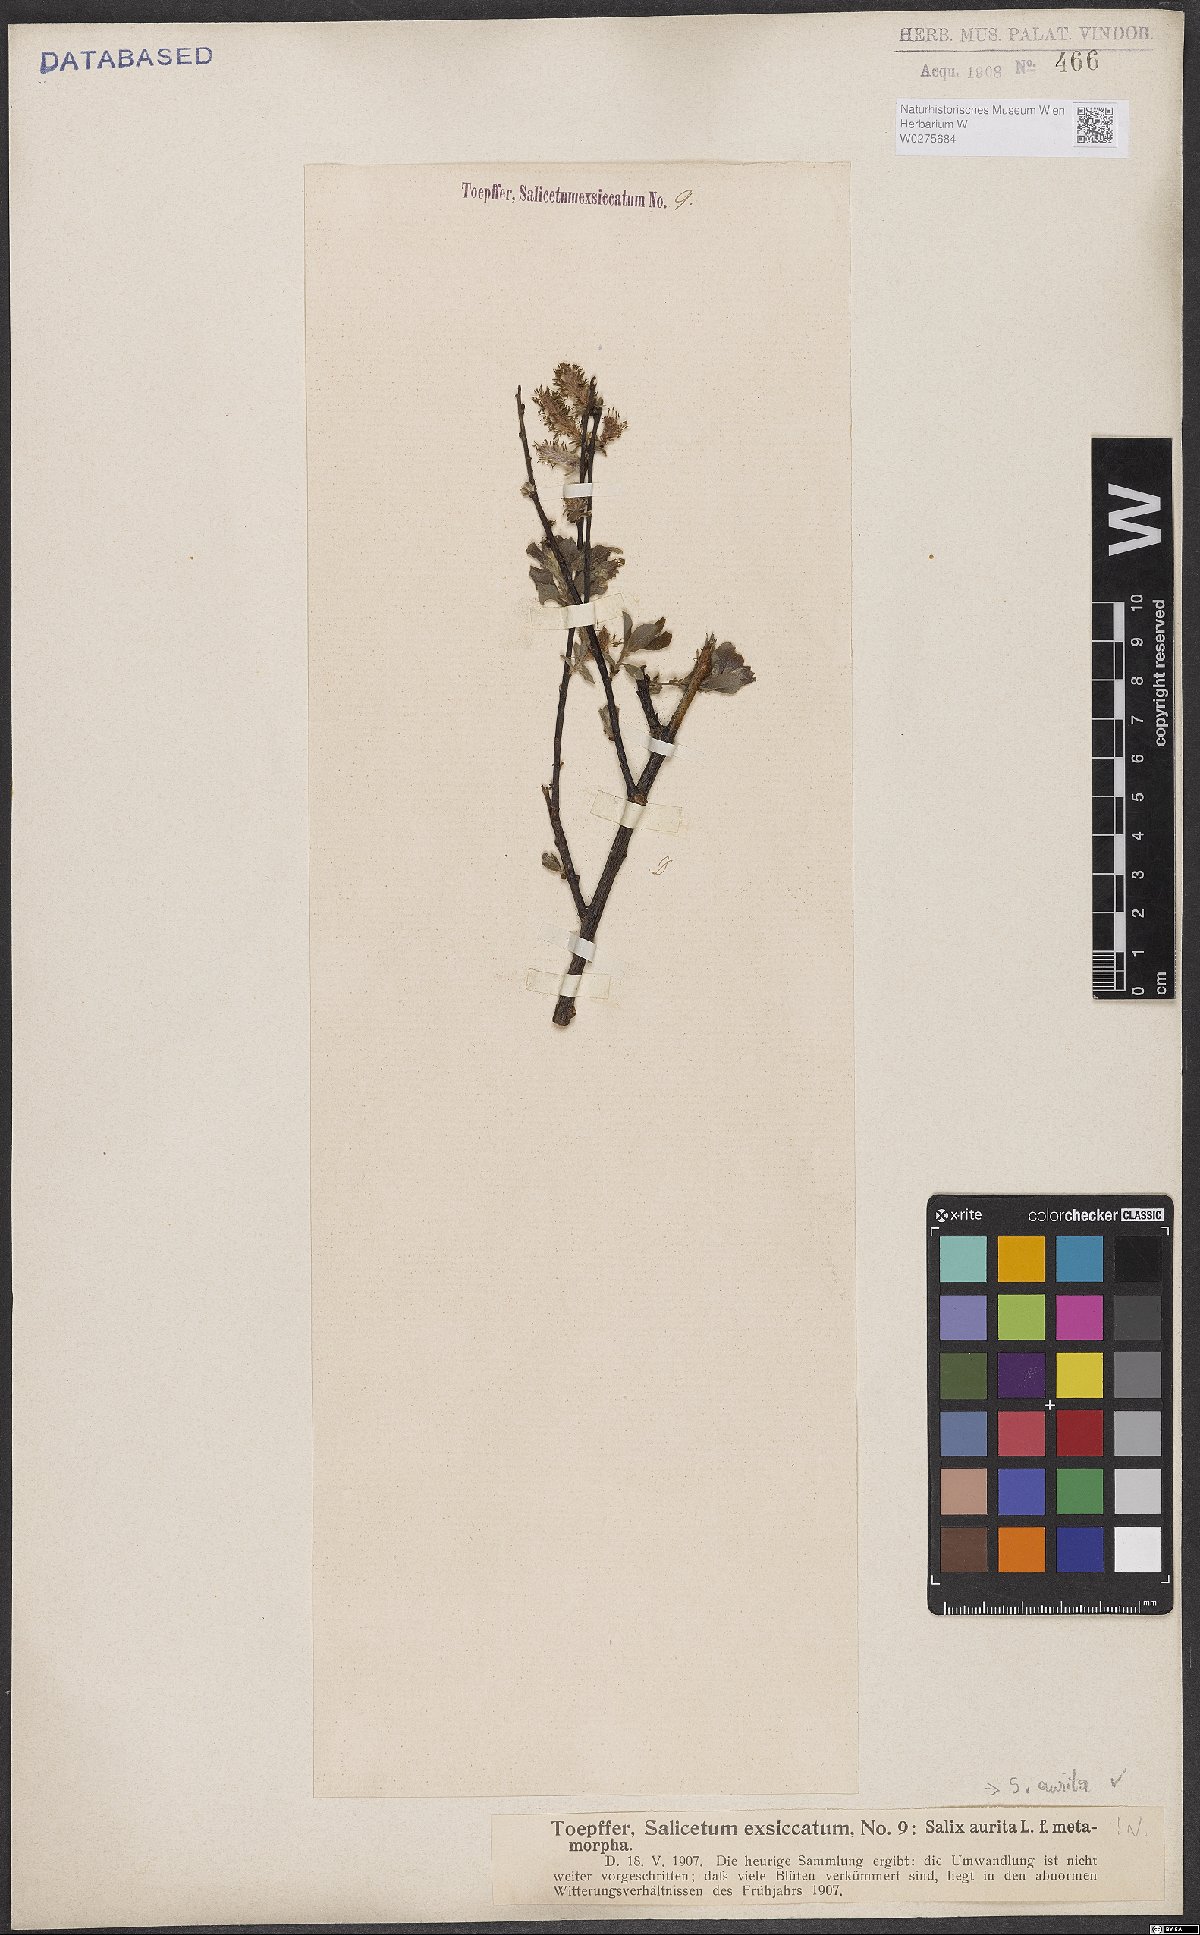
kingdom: Plantae
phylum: Tracheophyta
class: Magnoliopsida
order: Malpighiales
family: Salicaceae
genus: Salix
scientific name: Salix aurita
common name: Eared willow
